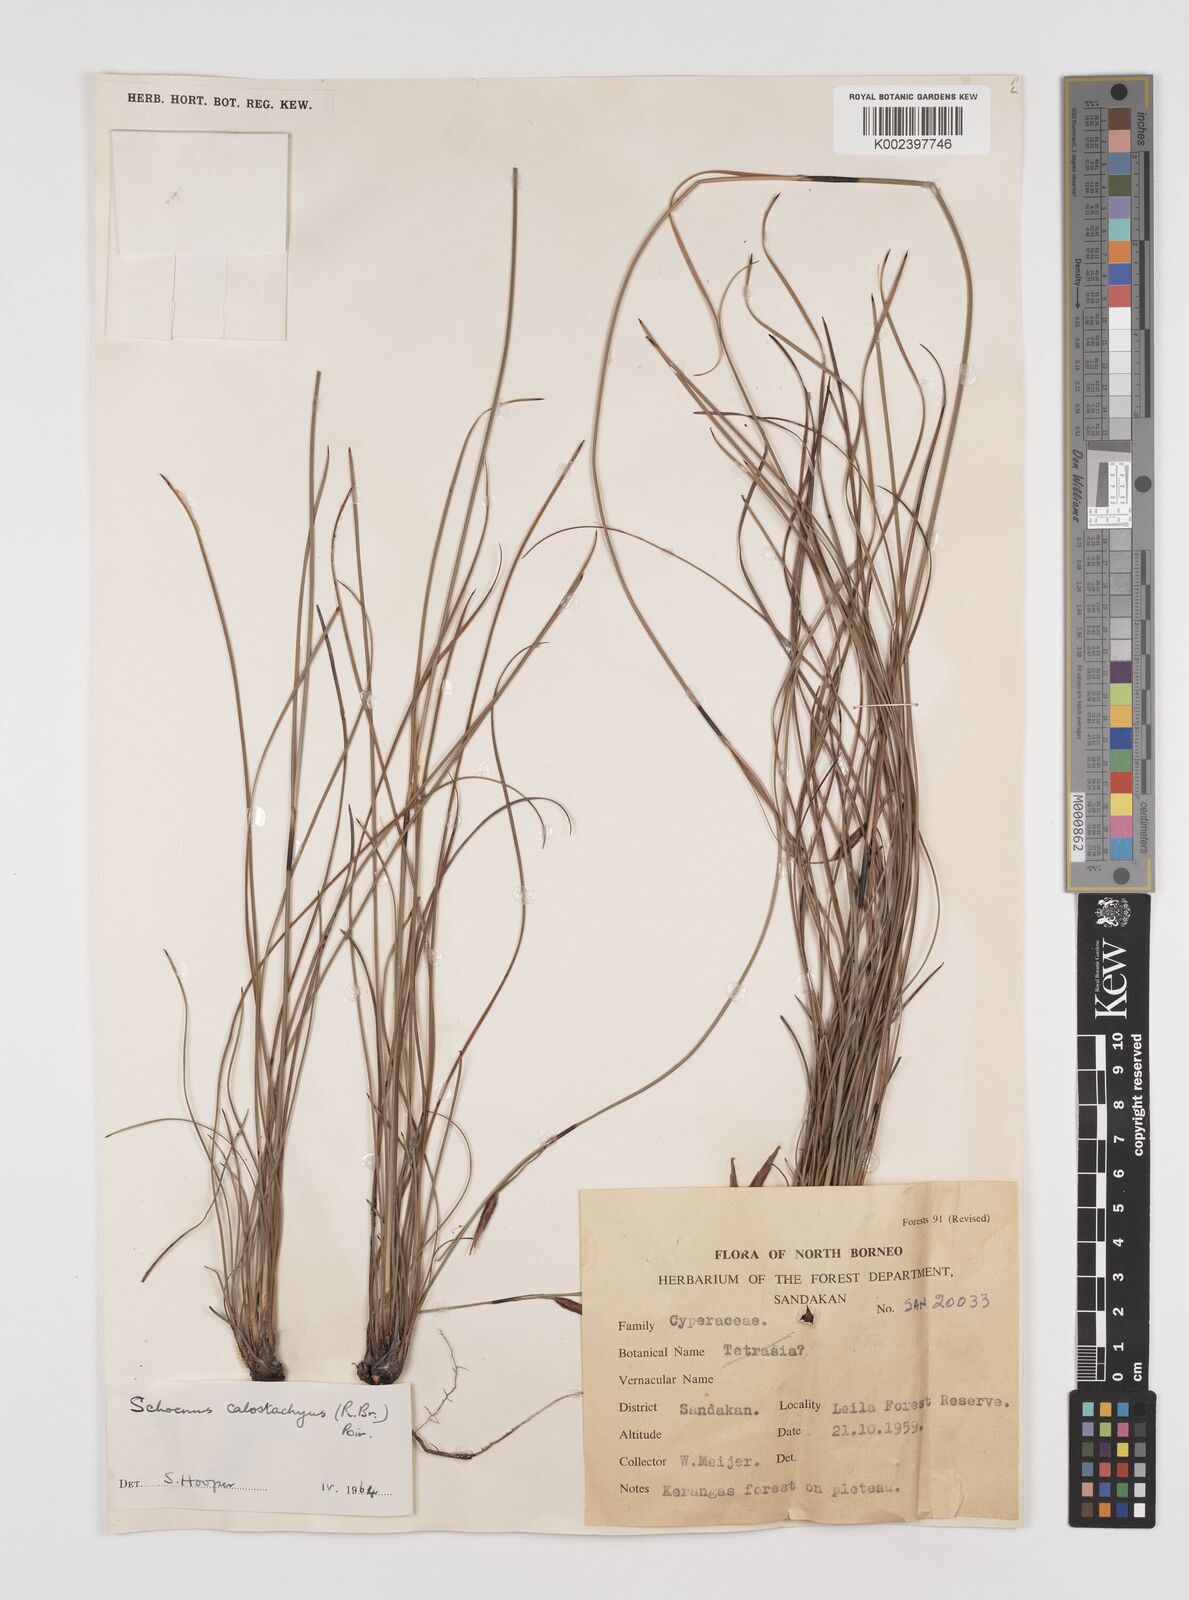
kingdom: Plantae
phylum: Tracheophyta
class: Liliopsida
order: Poales
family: Cyperaceae
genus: Schoenus
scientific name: Schoenus calostachyus
